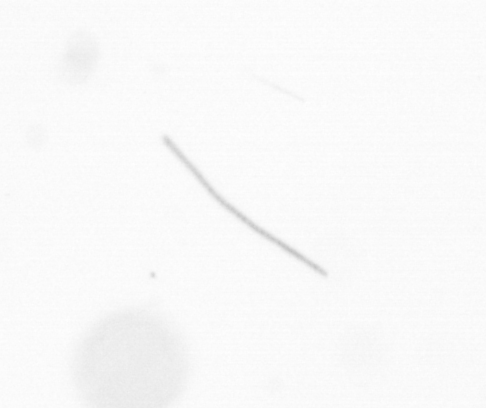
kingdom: Chromista
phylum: Ochrophyta
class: Bacillariophyceae
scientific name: Bacillariophyceae
